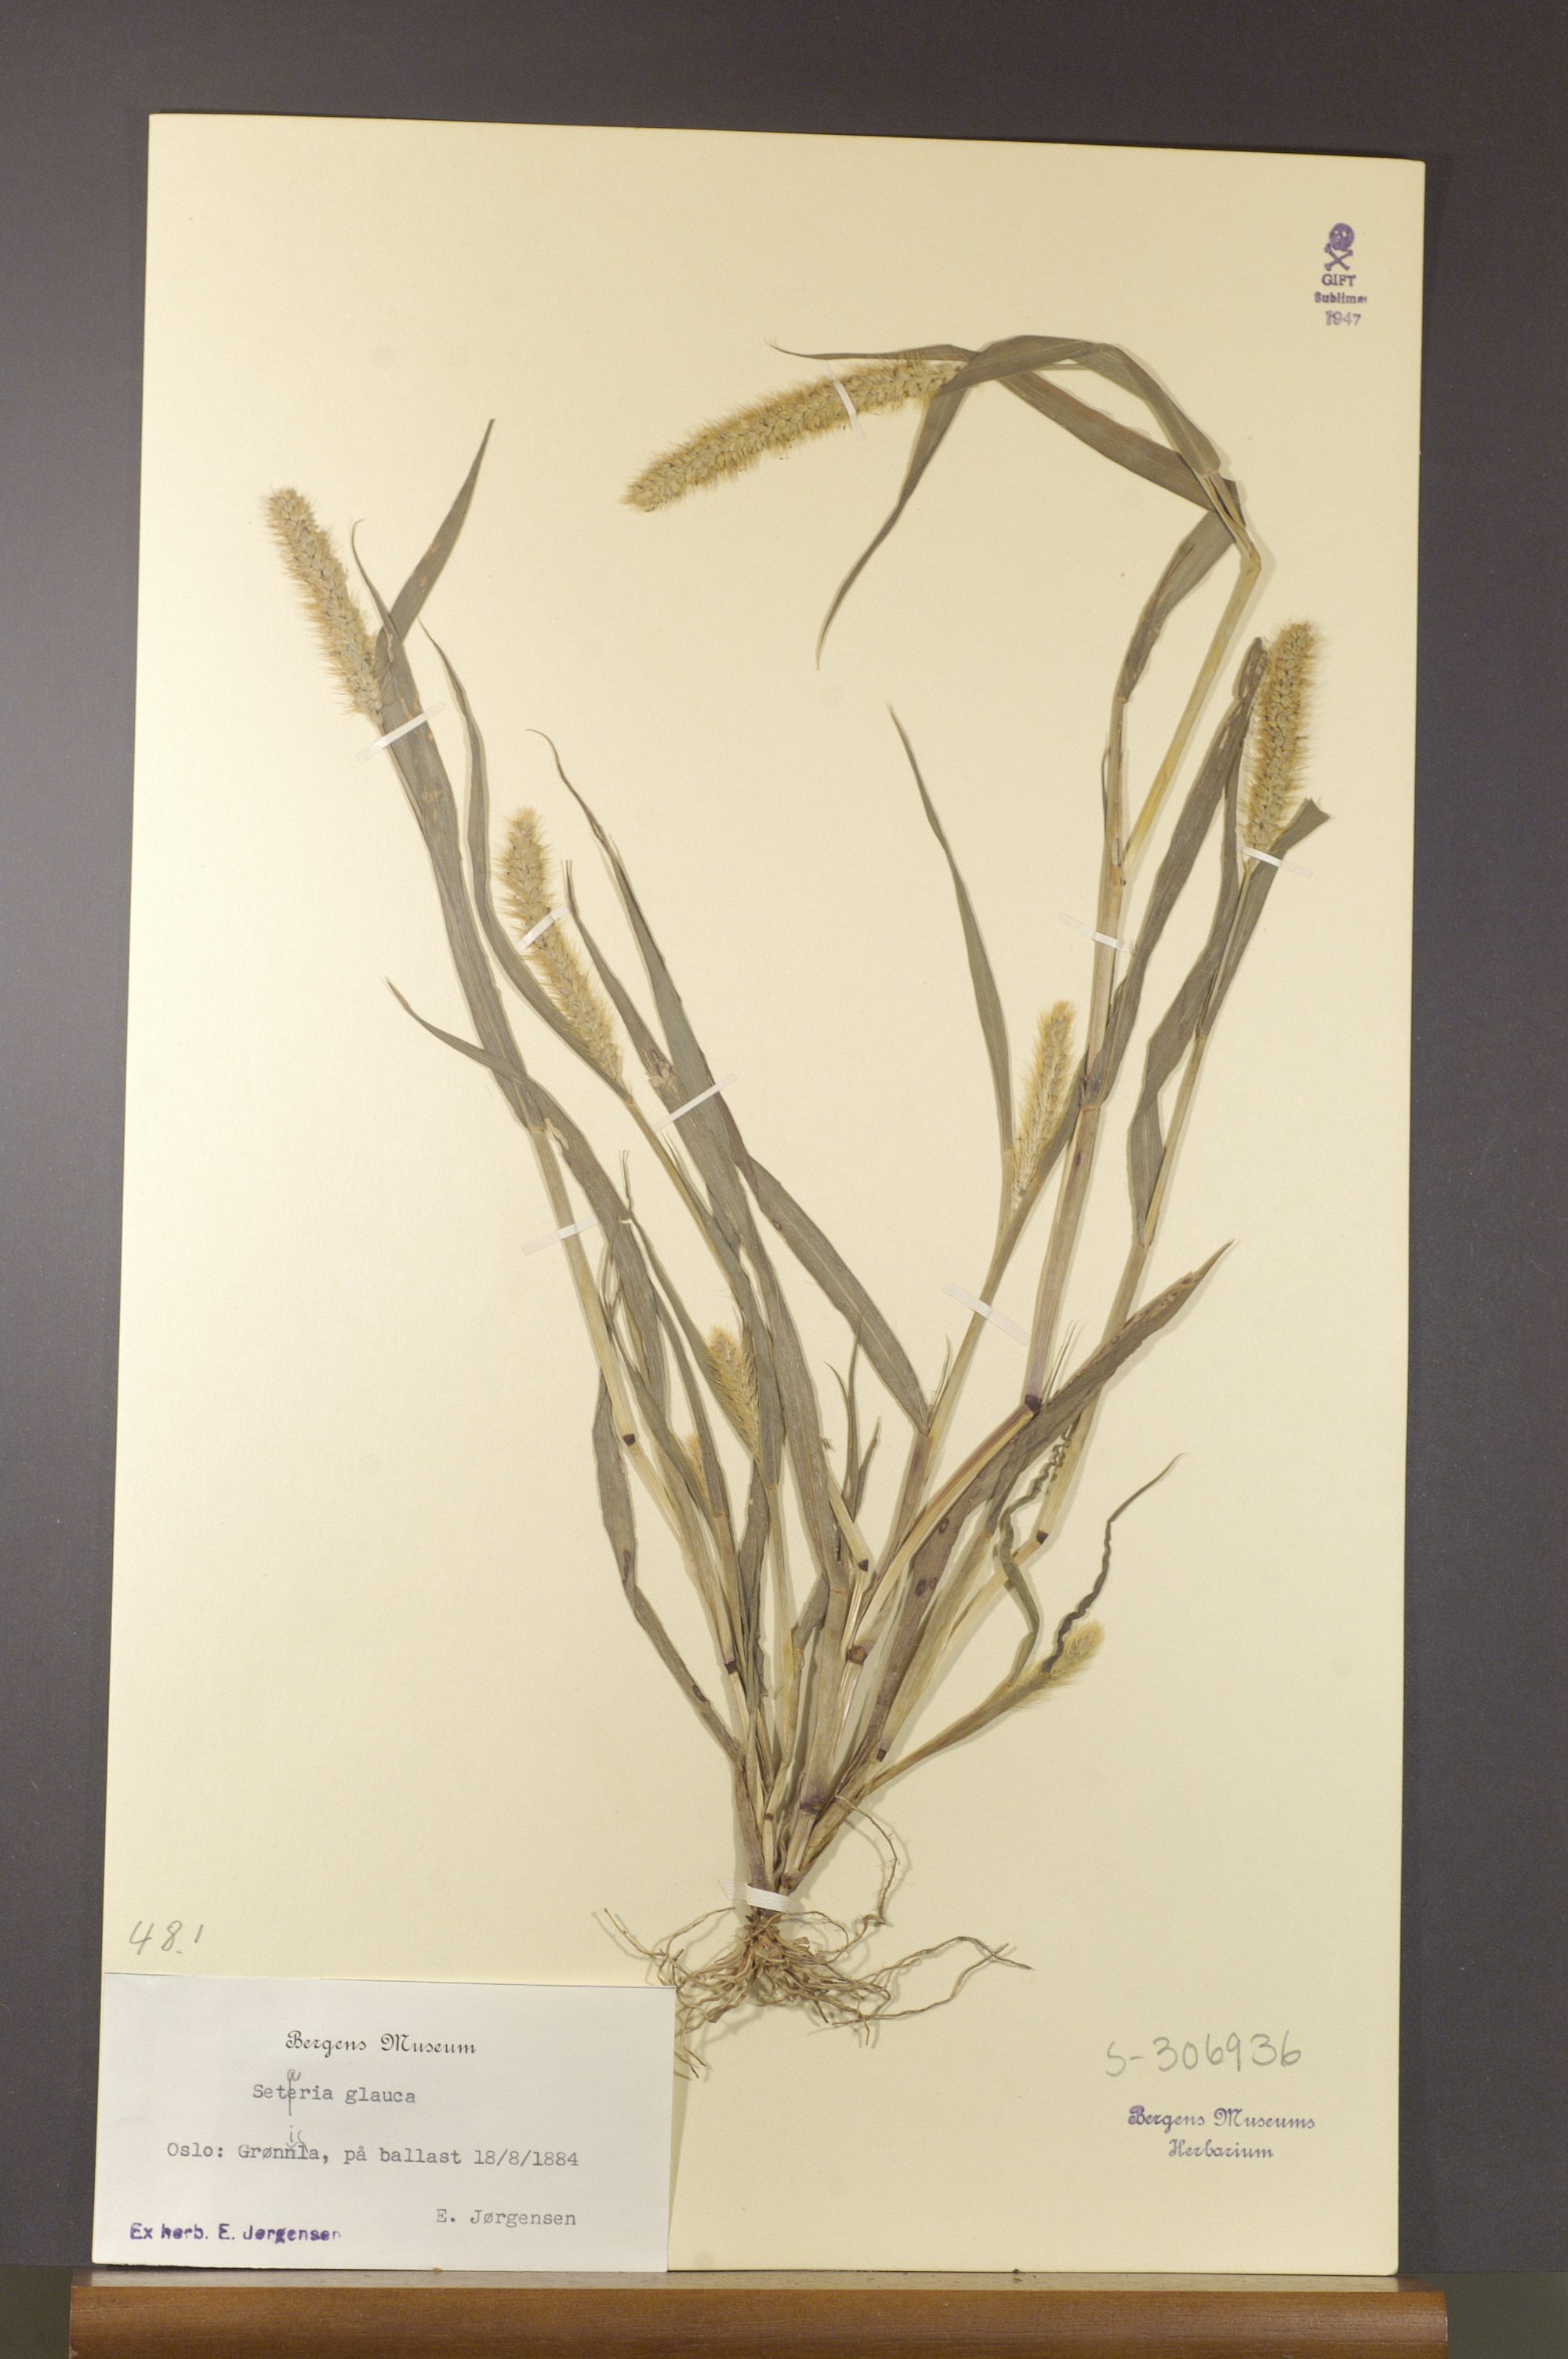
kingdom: Plantae
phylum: Tracheophyta
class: Liliopsida
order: Poales
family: Poaceae
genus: Setaria
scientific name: Setaria pumila
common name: Yellow bristle-grass
